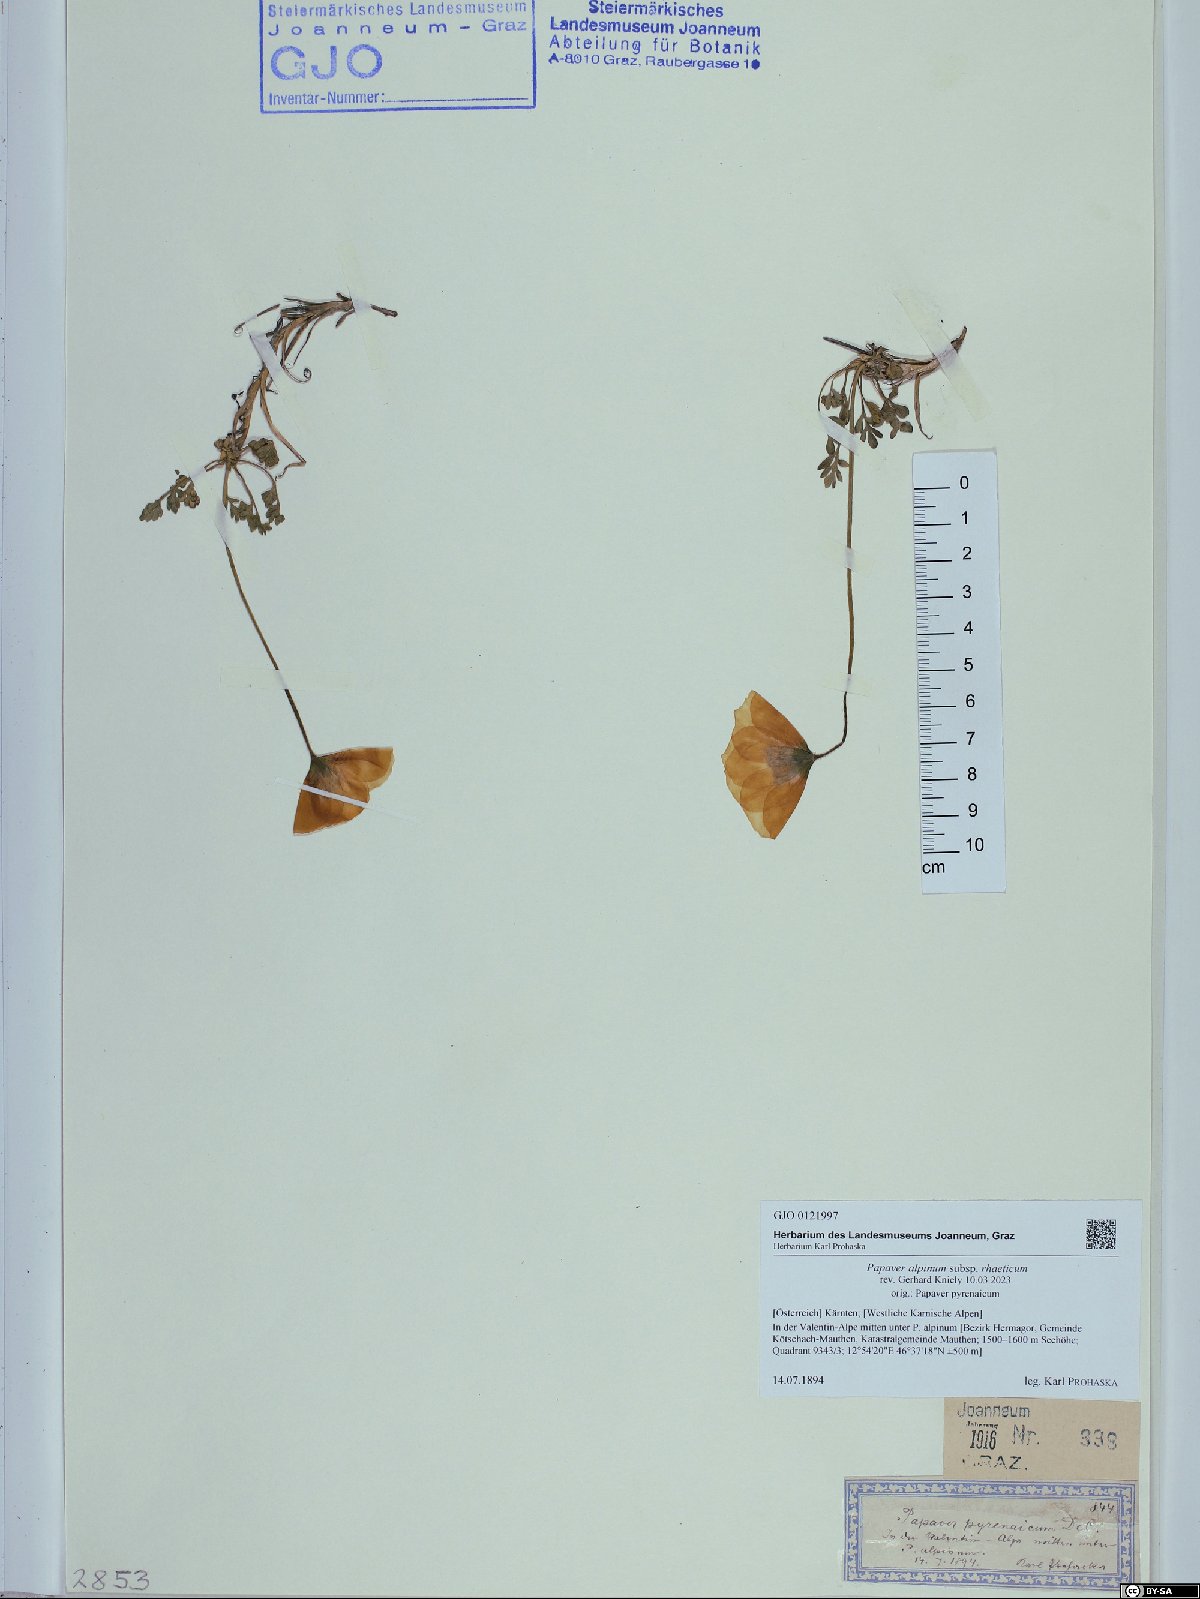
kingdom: Plantae
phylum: Tracheophyta
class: Magnoliopsida
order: Ranunculales
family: Papaveraceae
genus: Papaver
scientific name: Papaver alpinum
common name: Austrian poppy
